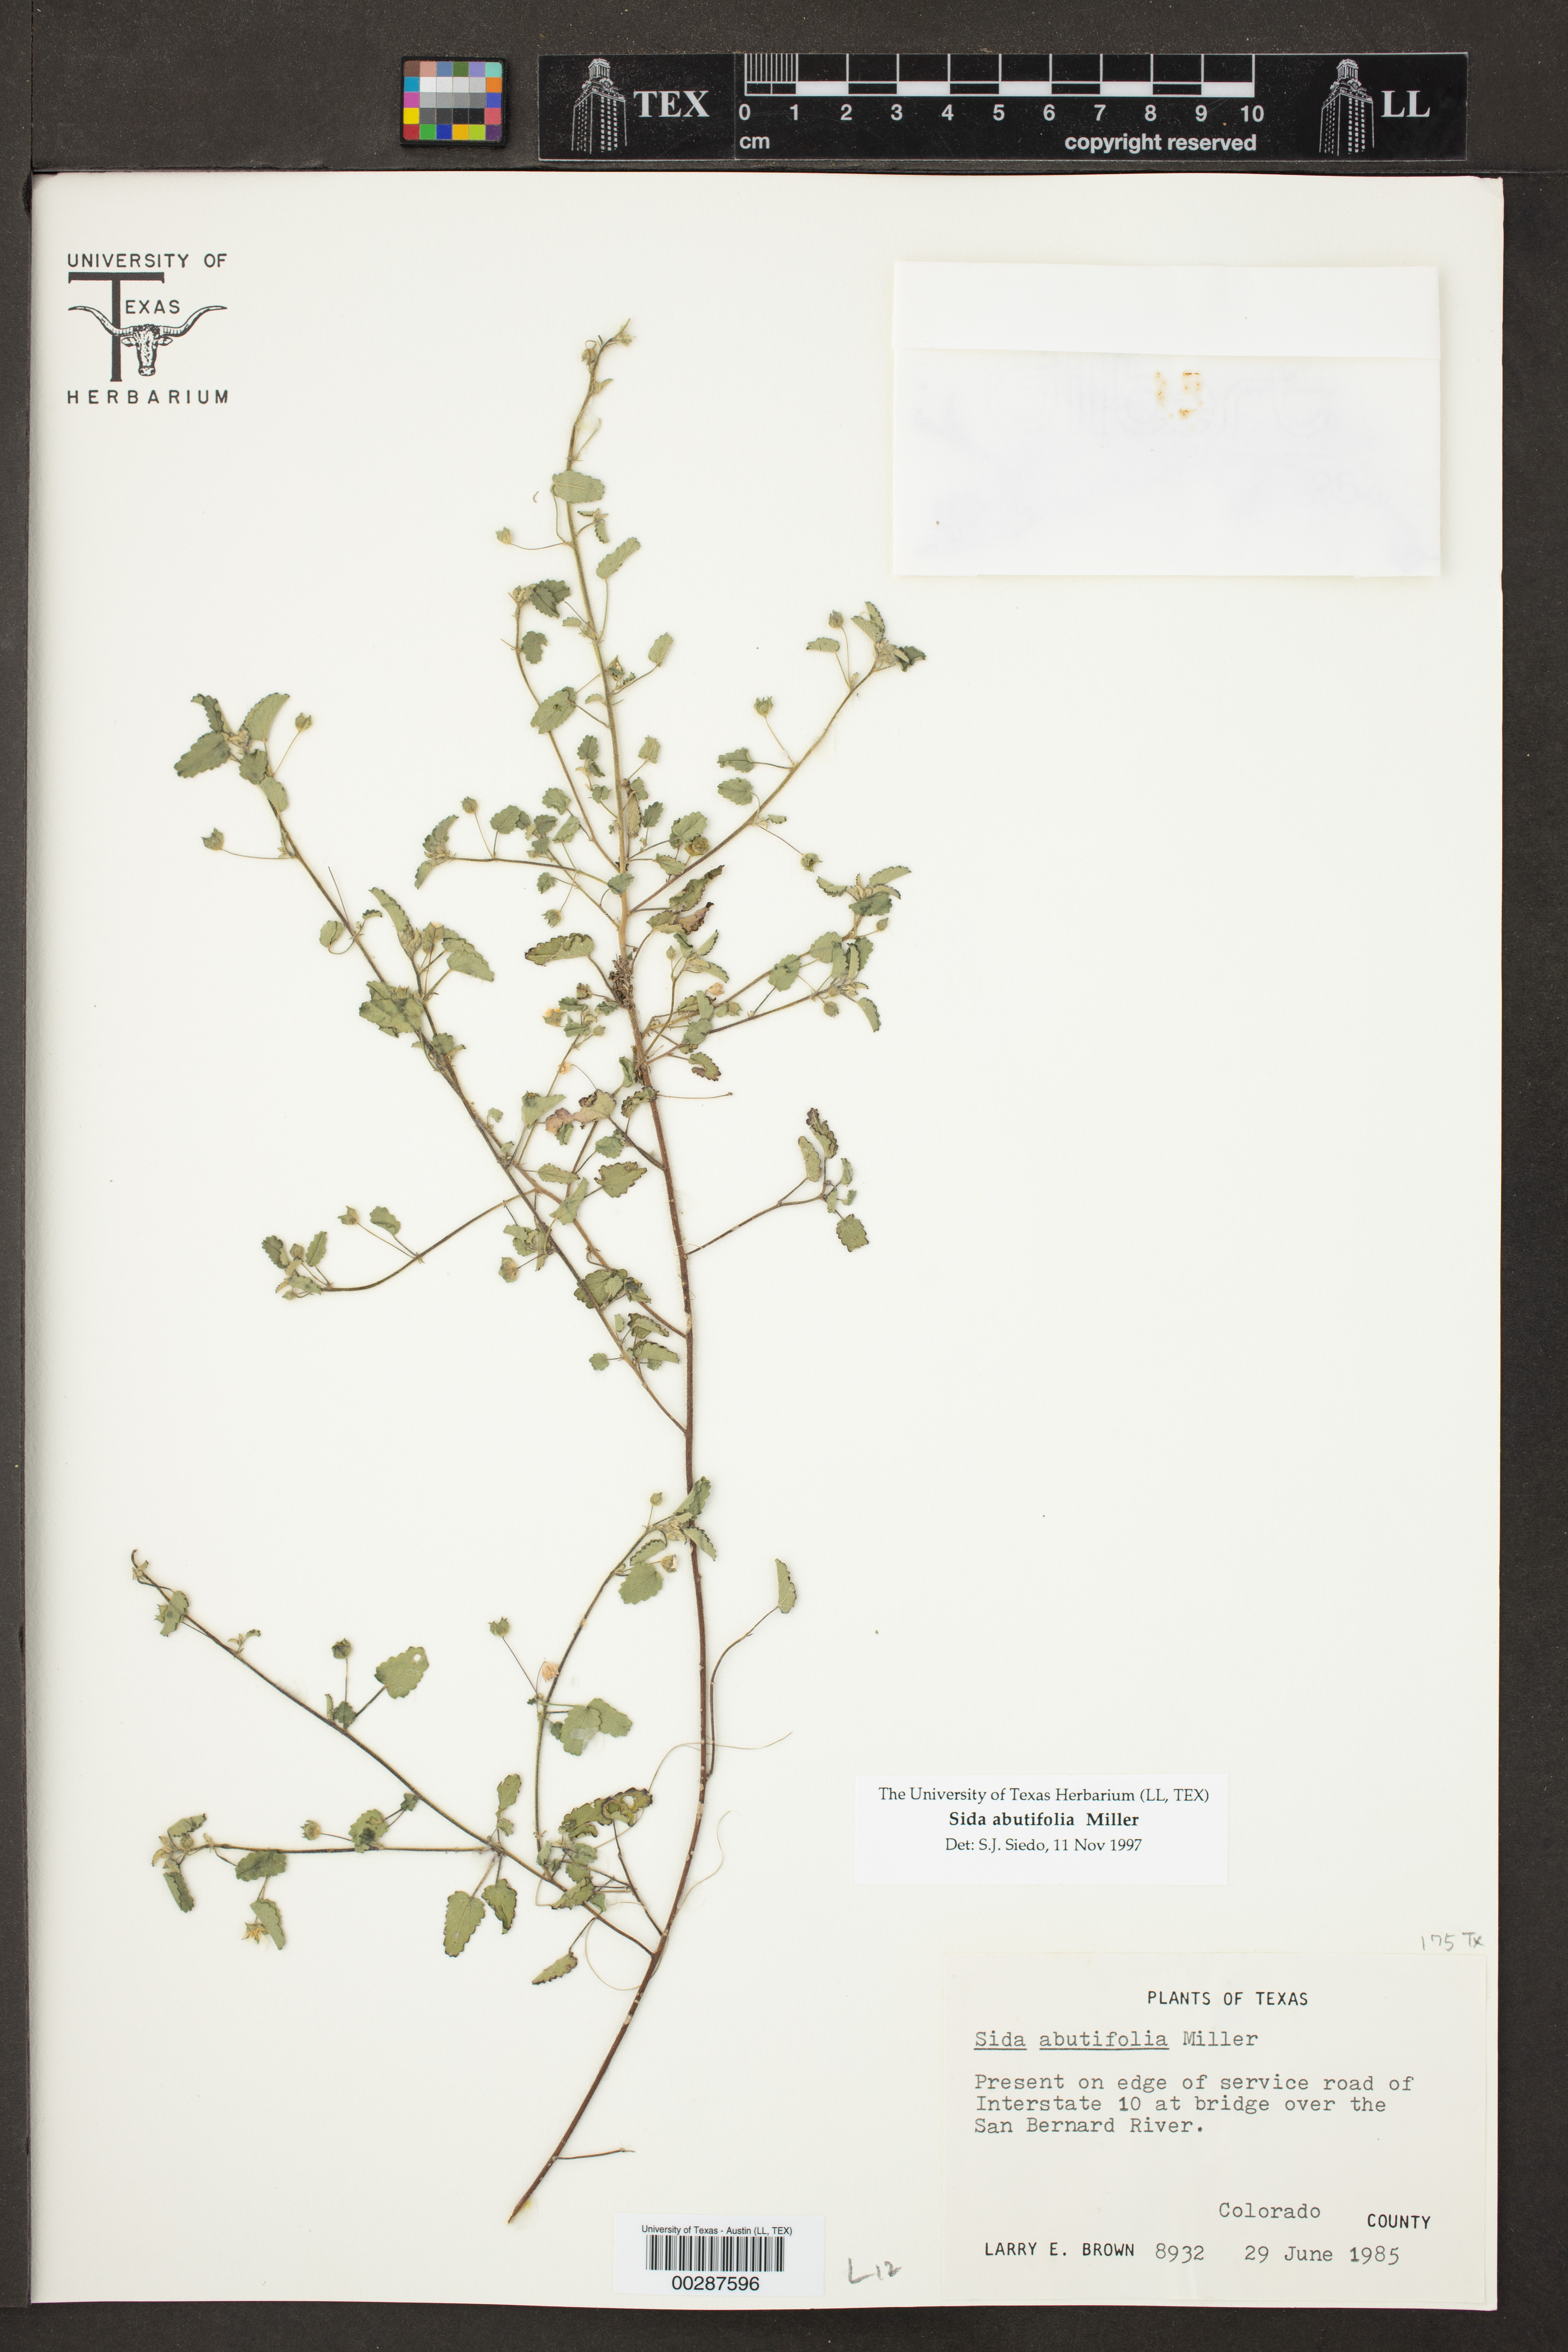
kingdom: Plantae
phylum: Tracheophyta
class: Magnoliopsida
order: Malvales
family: Malvaceae
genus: Sida
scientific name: Sida abutilifolia
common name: Spreading fanpetals
